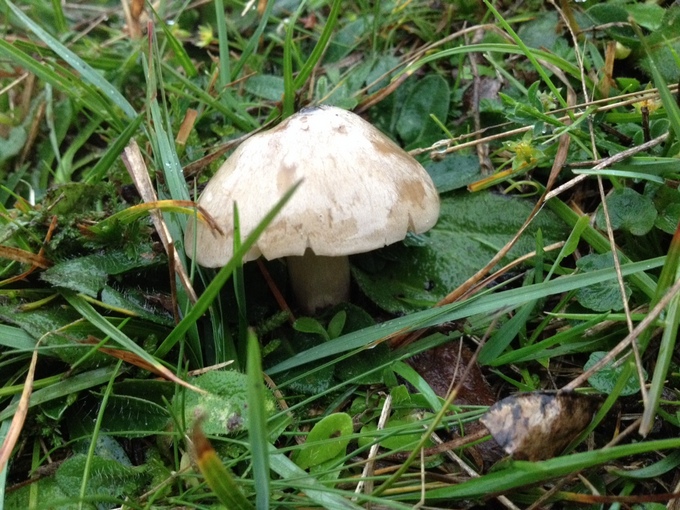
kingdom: Fungi
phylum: Basidiomycota
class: Agaricomycetes
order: Agaricales
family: Entolomataceae
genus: Entoloma
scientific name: Entoloma prunuloides
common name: mel-rødblad
